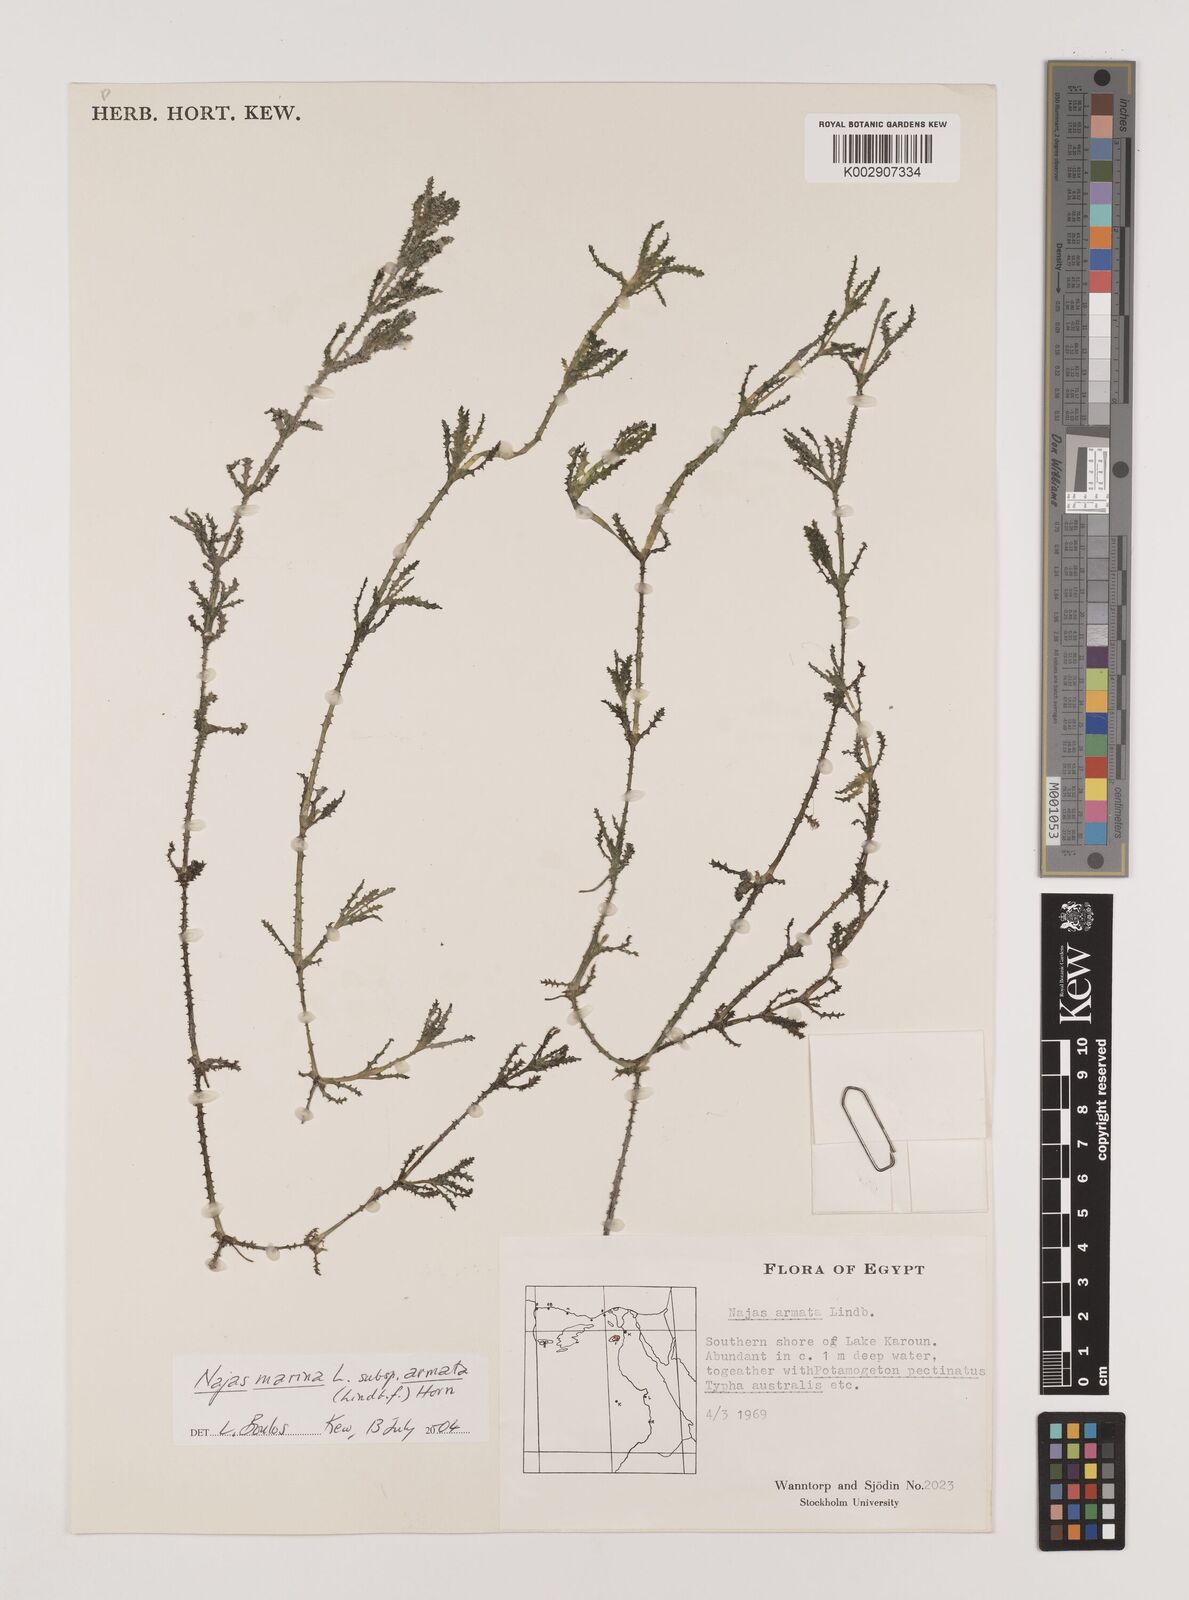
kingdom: Plantae
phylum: Tracheophyta
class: Liliopsida
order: Alismatales
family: Hydrocharitaceae
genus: Najas
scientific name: Najas marina
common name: Holly-leaved naiad
